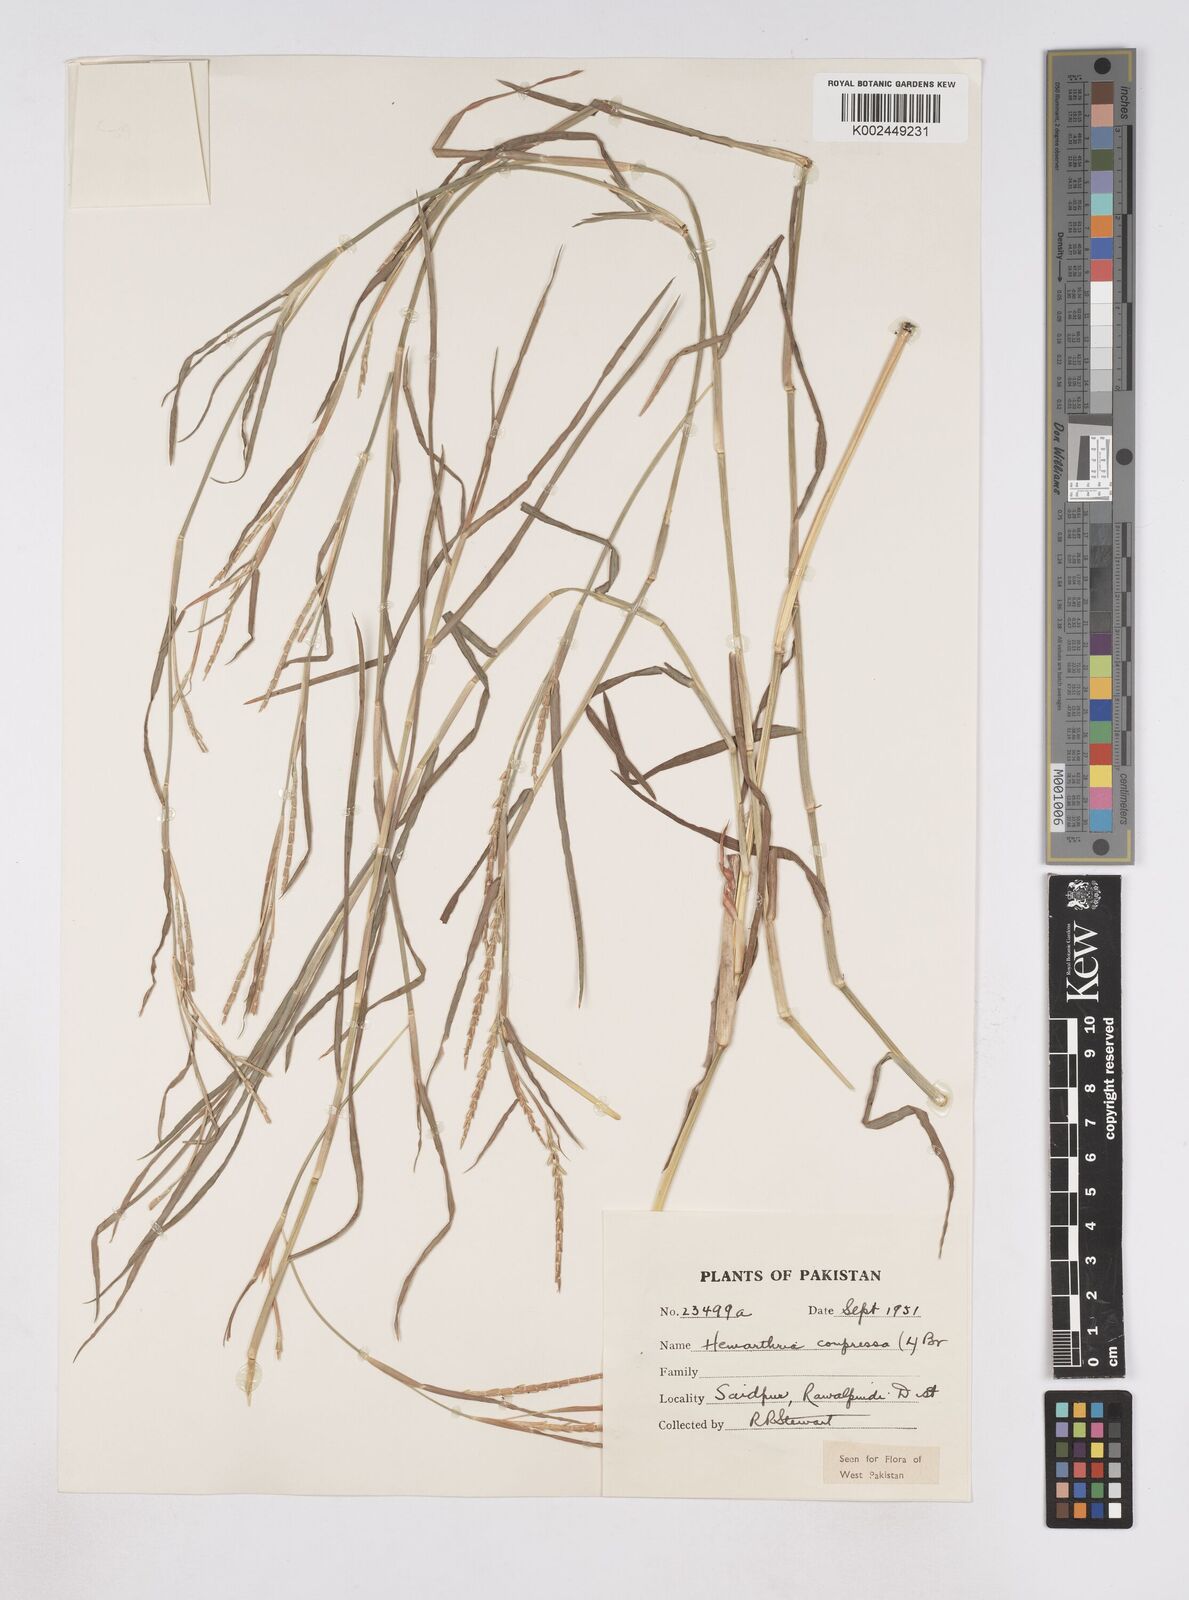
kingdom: Plantae
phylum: Tracheophyta
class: Liliopsida
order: Poales
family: Poaceae
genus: Hemarthria
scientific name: Hemarthria compressa
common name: Whip grass
